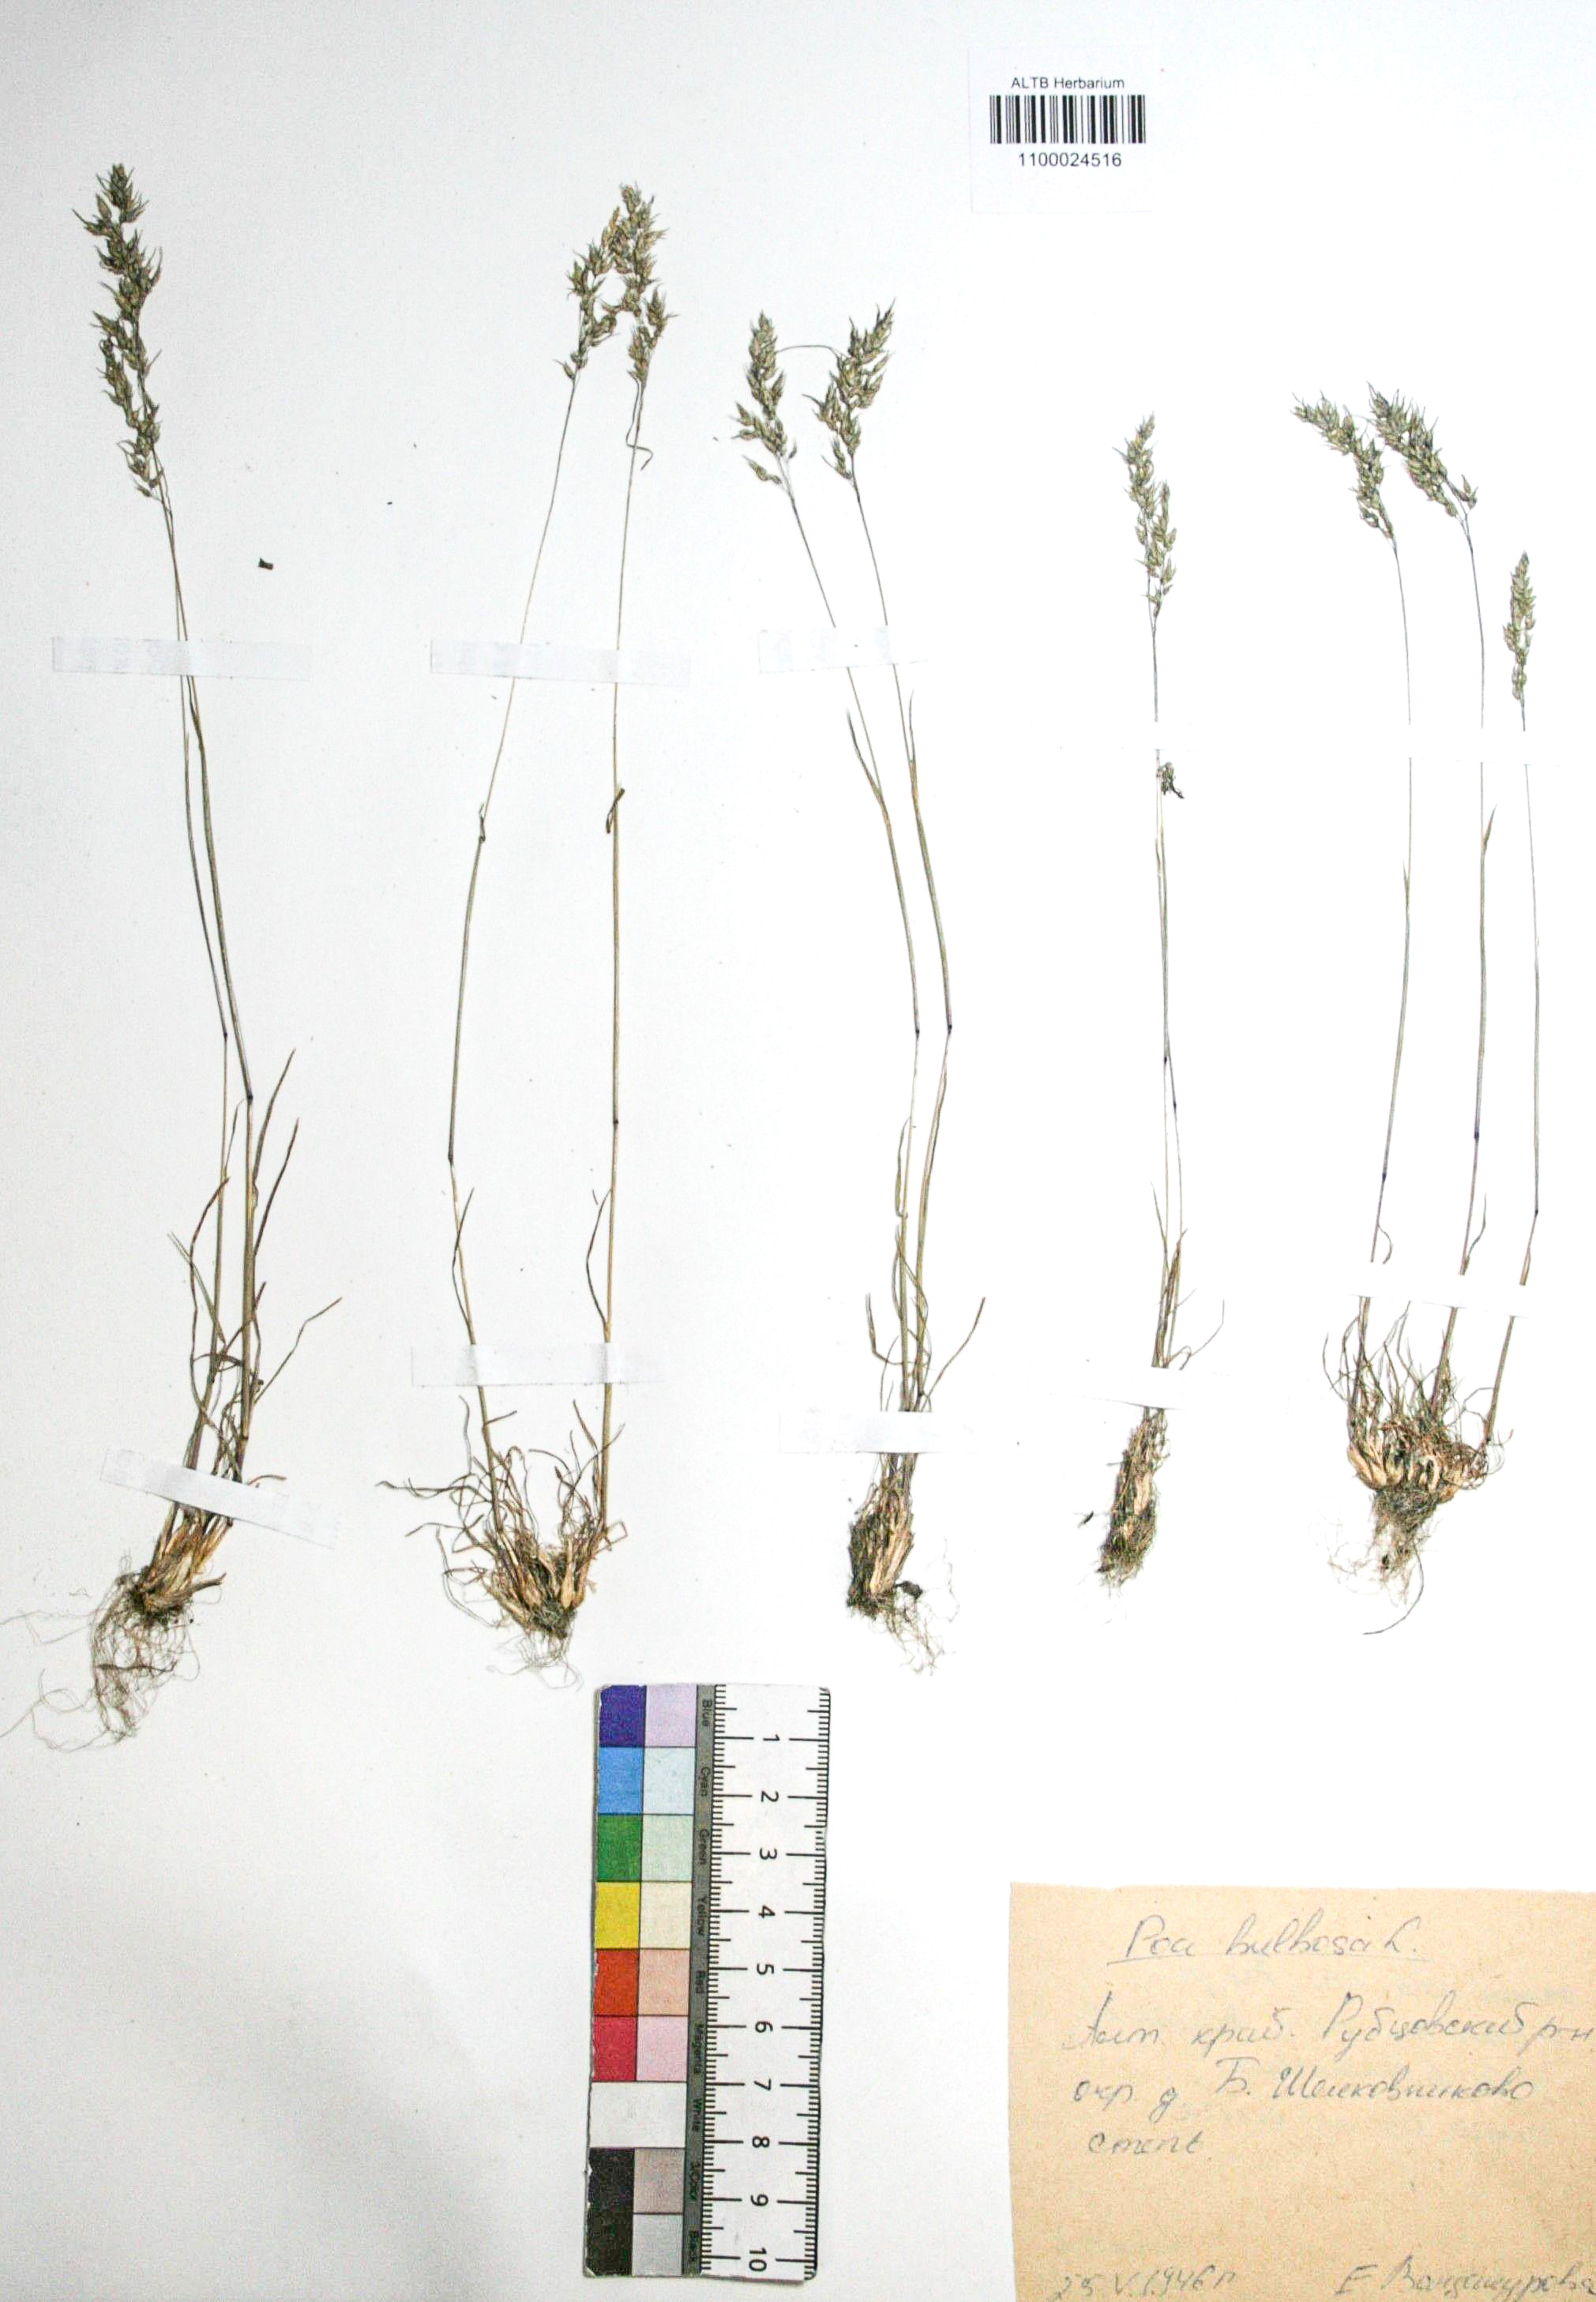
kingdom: Plantae
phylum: Tracheophyta
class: Liliopsida
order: Poales
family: Poaceae
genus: Poa
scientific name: Poa bulbosa
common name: Bulbous bluegrass
